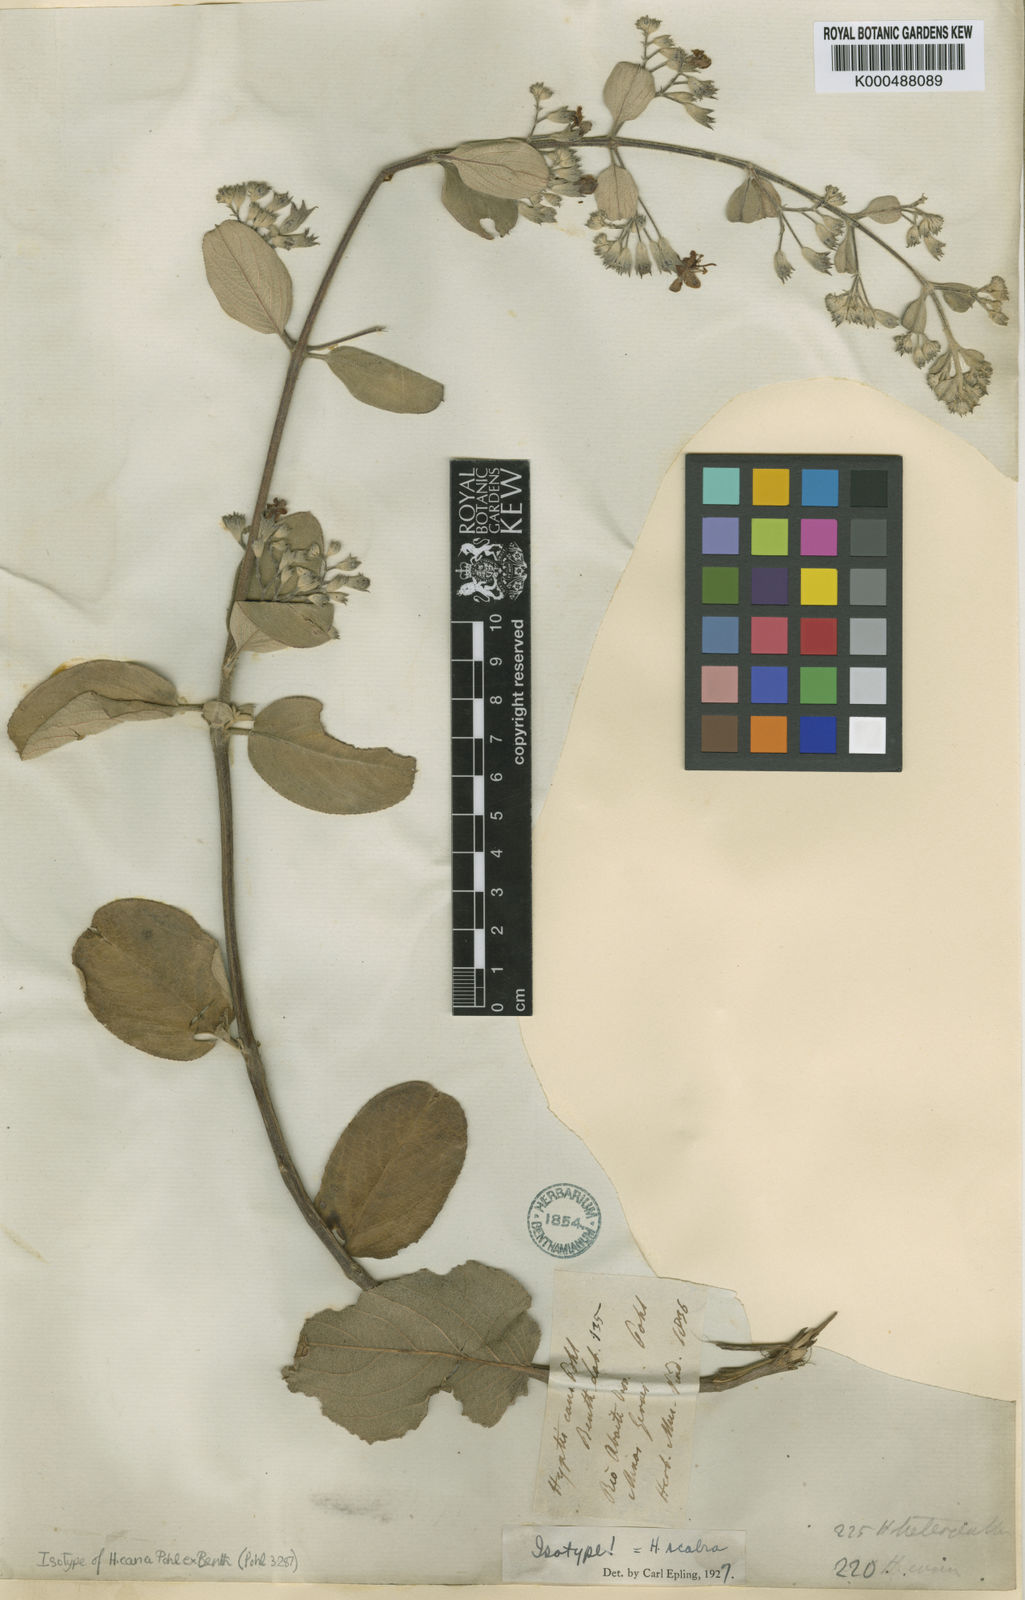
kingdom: Plantae
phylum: Tracheophyta
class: Magnoliopsida
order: Lamiales
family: Lamiaceae
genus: Hyptidendron
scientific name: Hyptidendron canum
